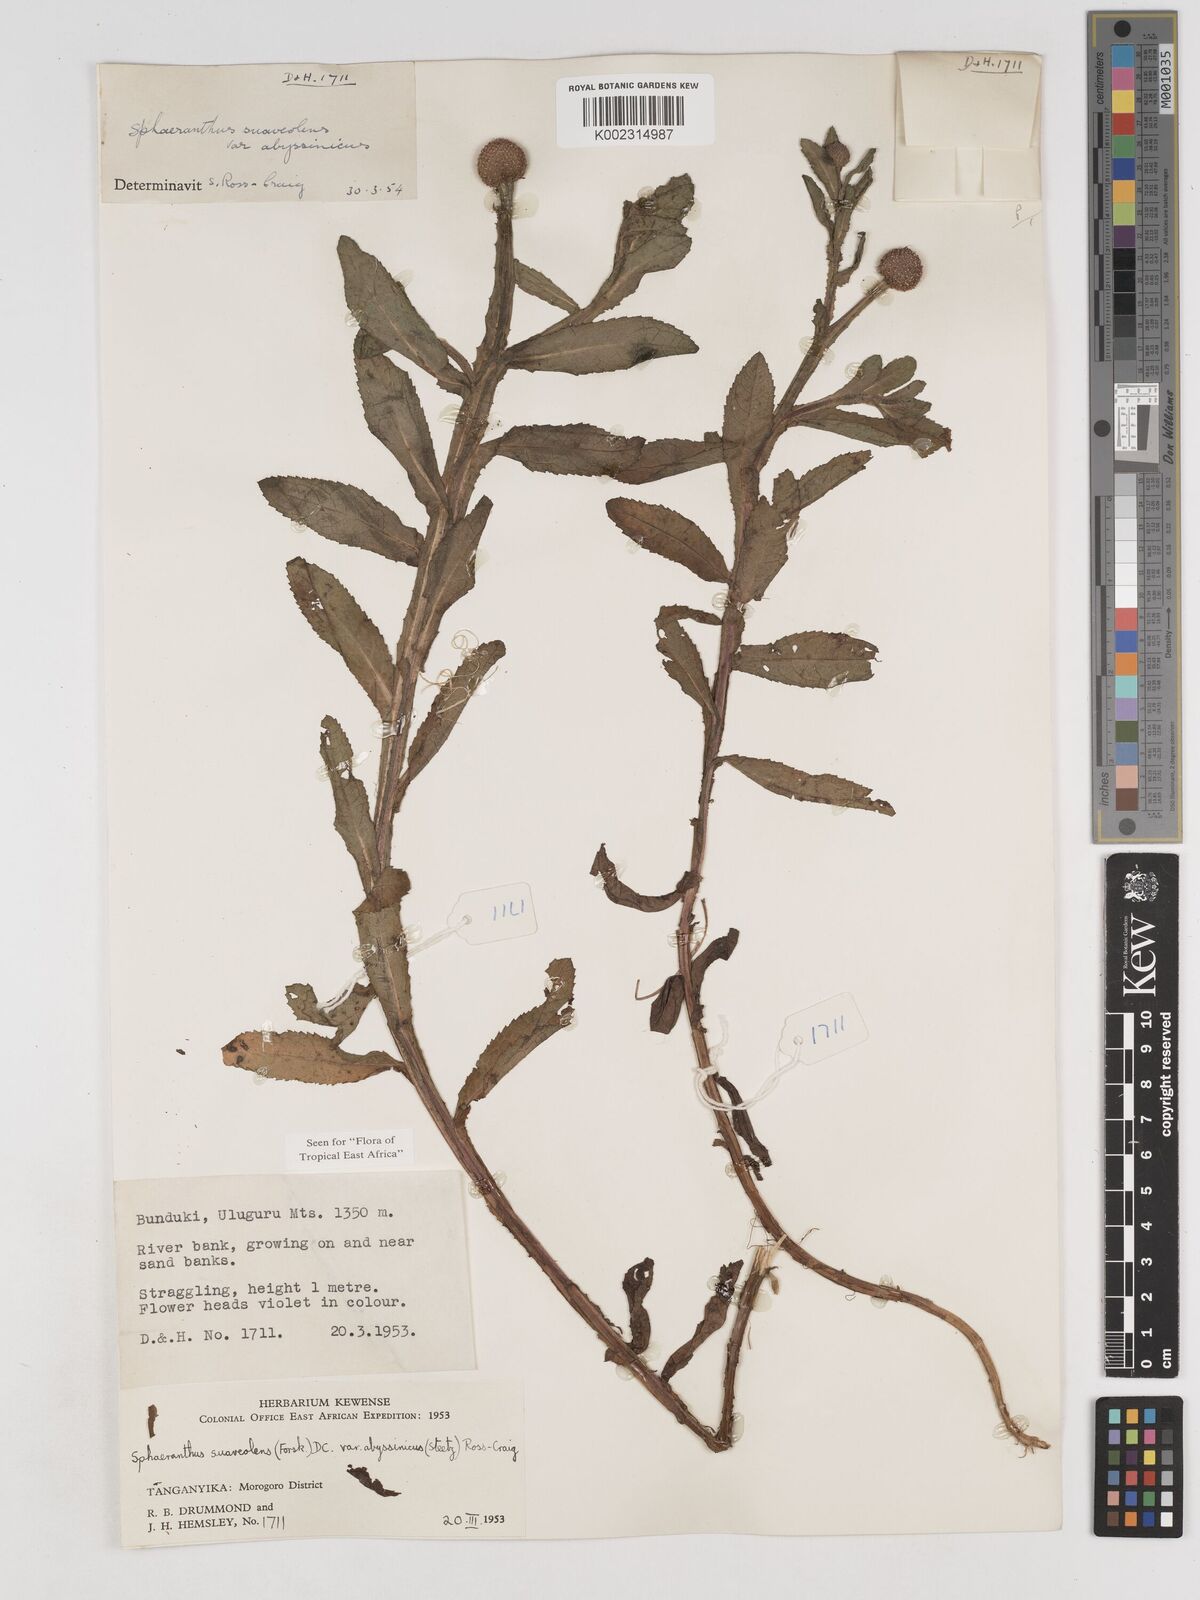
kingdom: Plantae
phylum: Tracheophyta
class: Magnoliopsida
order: Asterales
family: Asteraceae
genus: Sphaeranthus
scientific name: Sphaeranthus suaveolens
